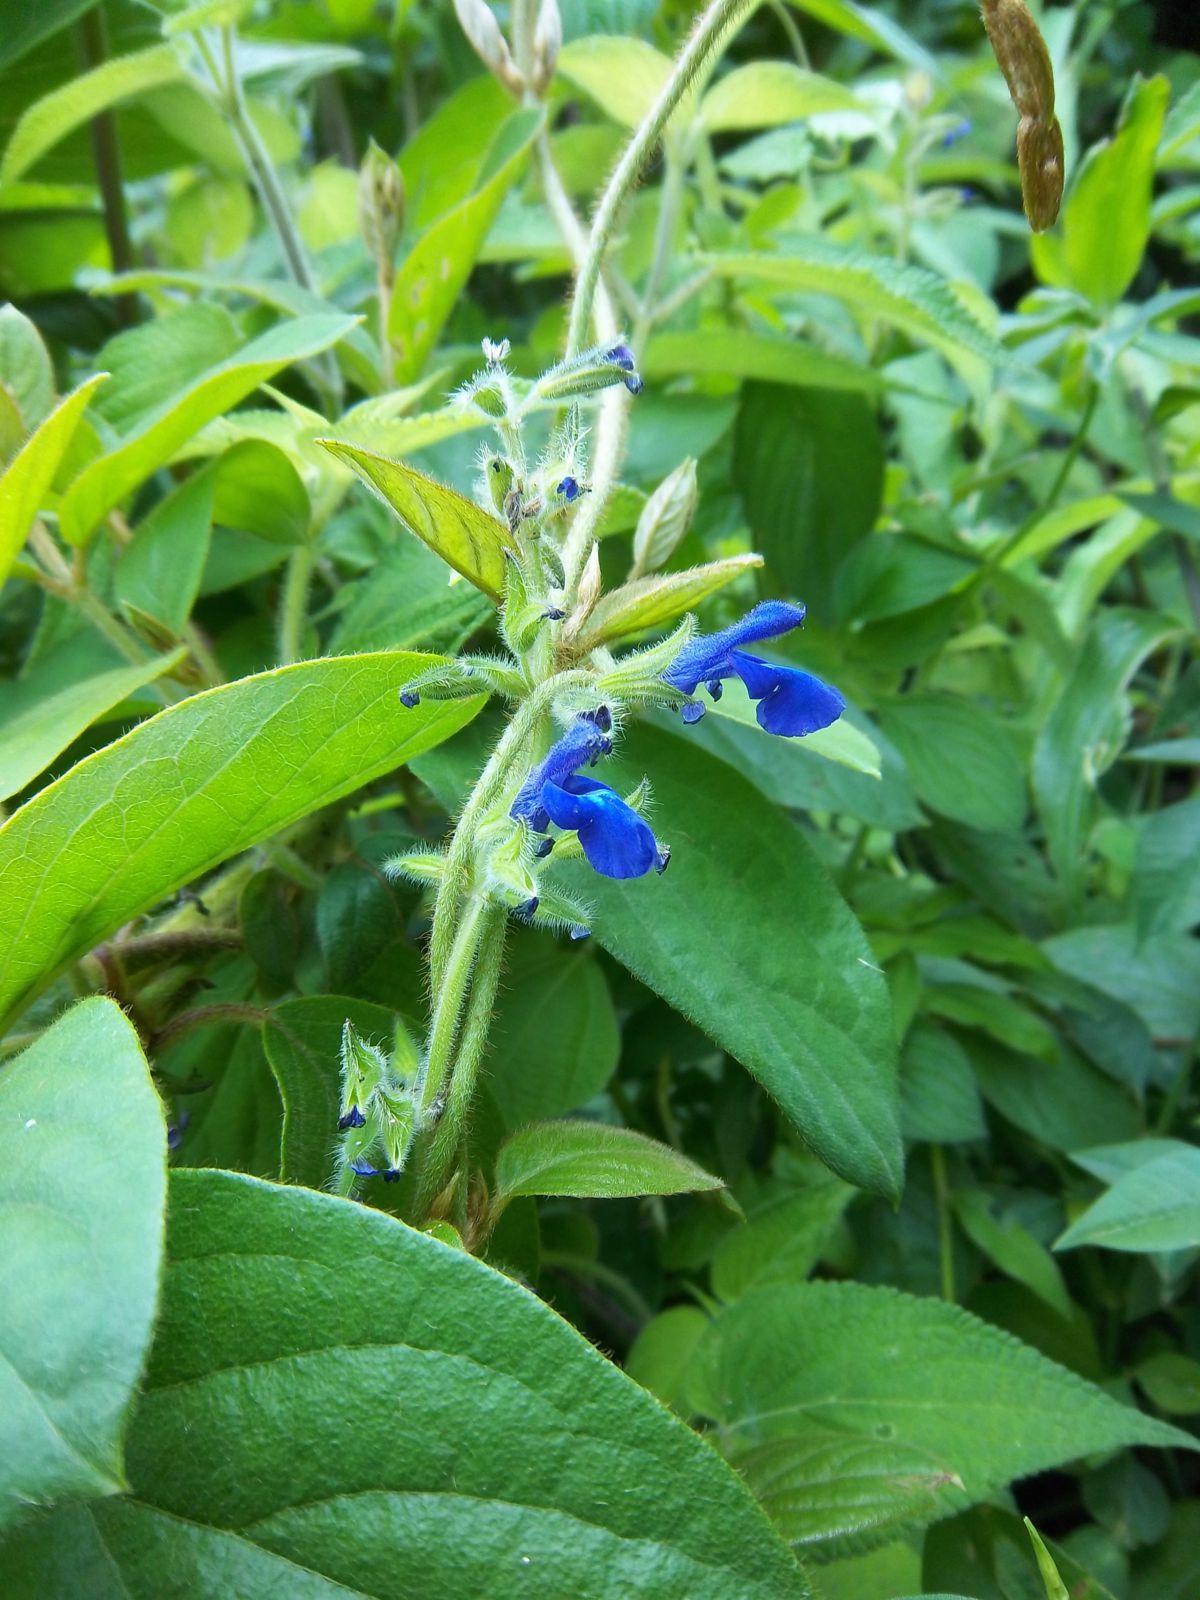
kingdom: Plantae
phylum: Tracheophyta
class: Magnoliopsida
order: Lamiales
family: Lamiaceae
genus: Salvia
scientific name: Salvia urica
